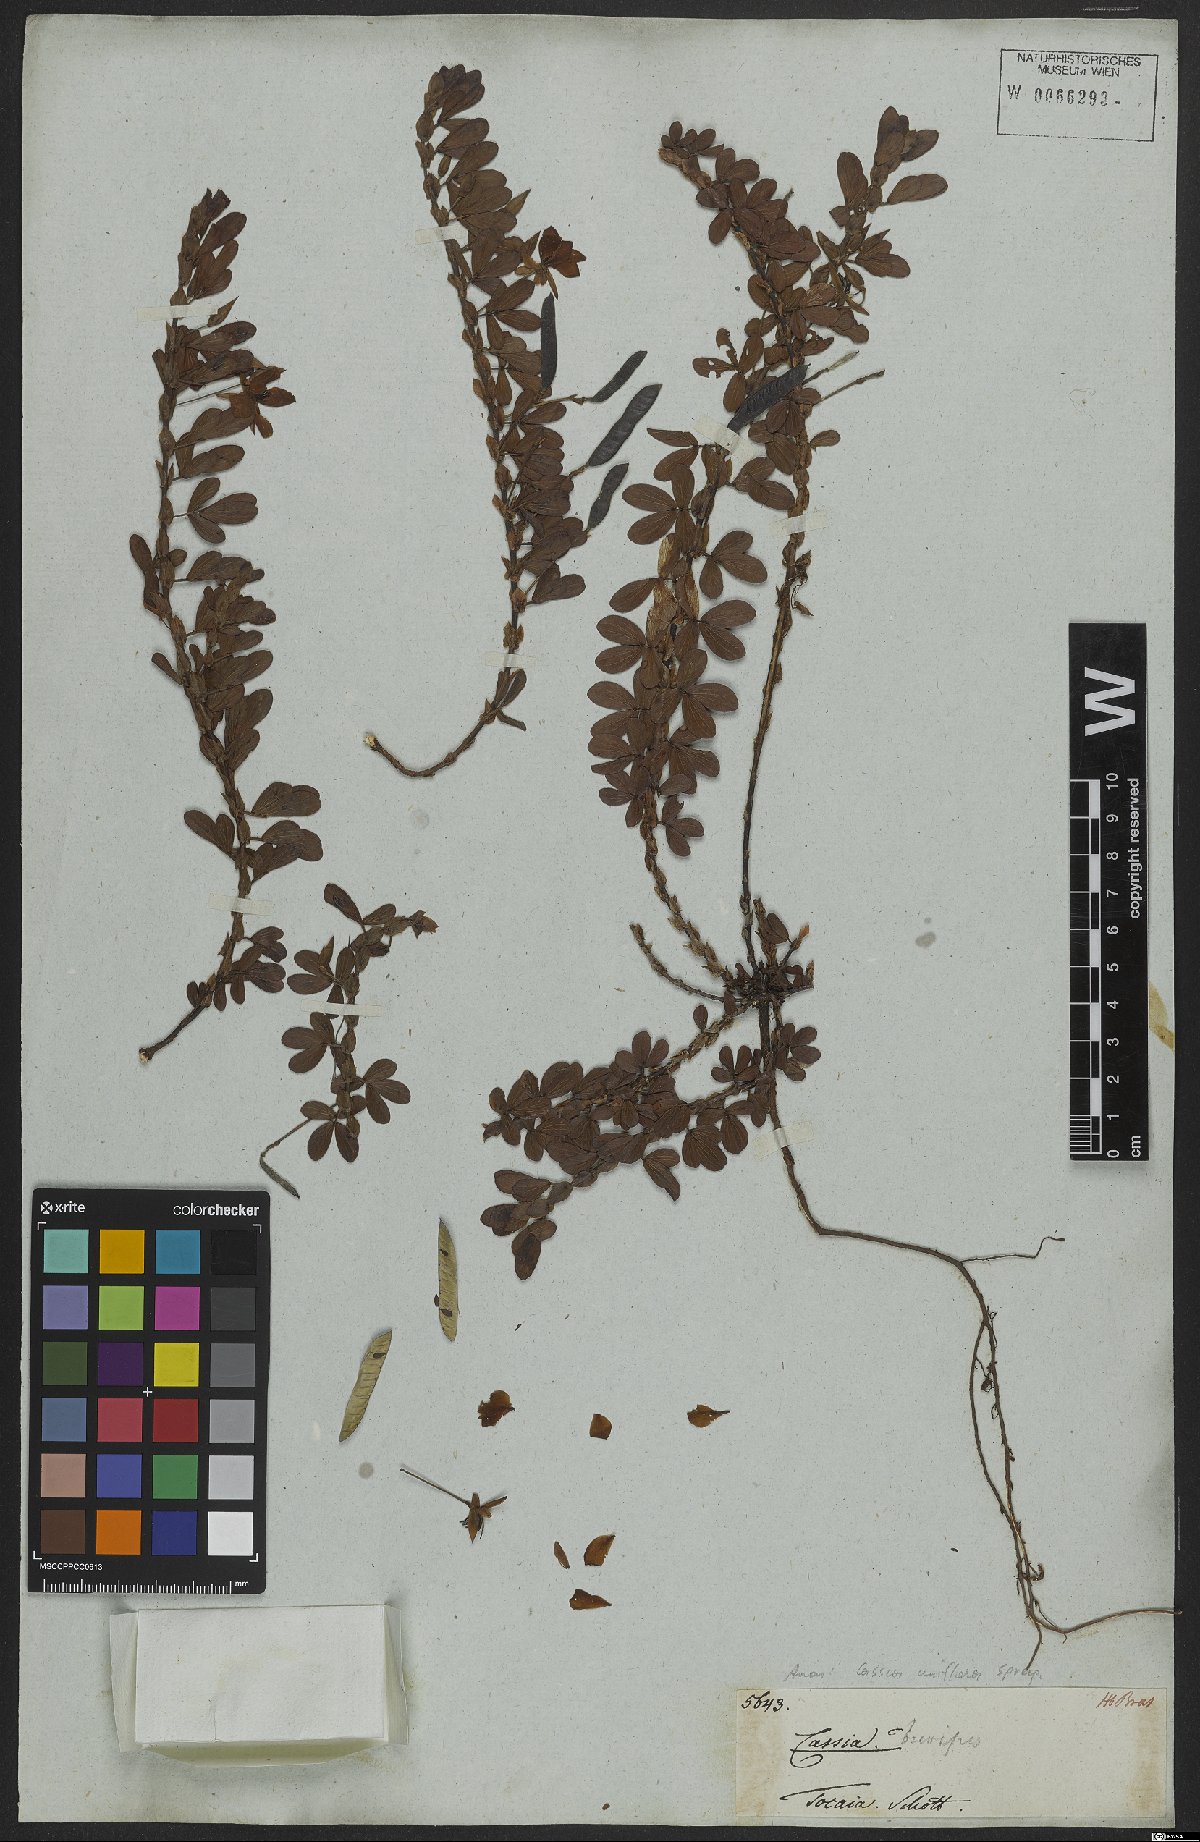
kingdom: Plantae
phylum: Tracheophyta
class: Magnoliopsida
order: Fabales
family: Fabaceae
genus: Senna
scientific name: Senna uniflora
